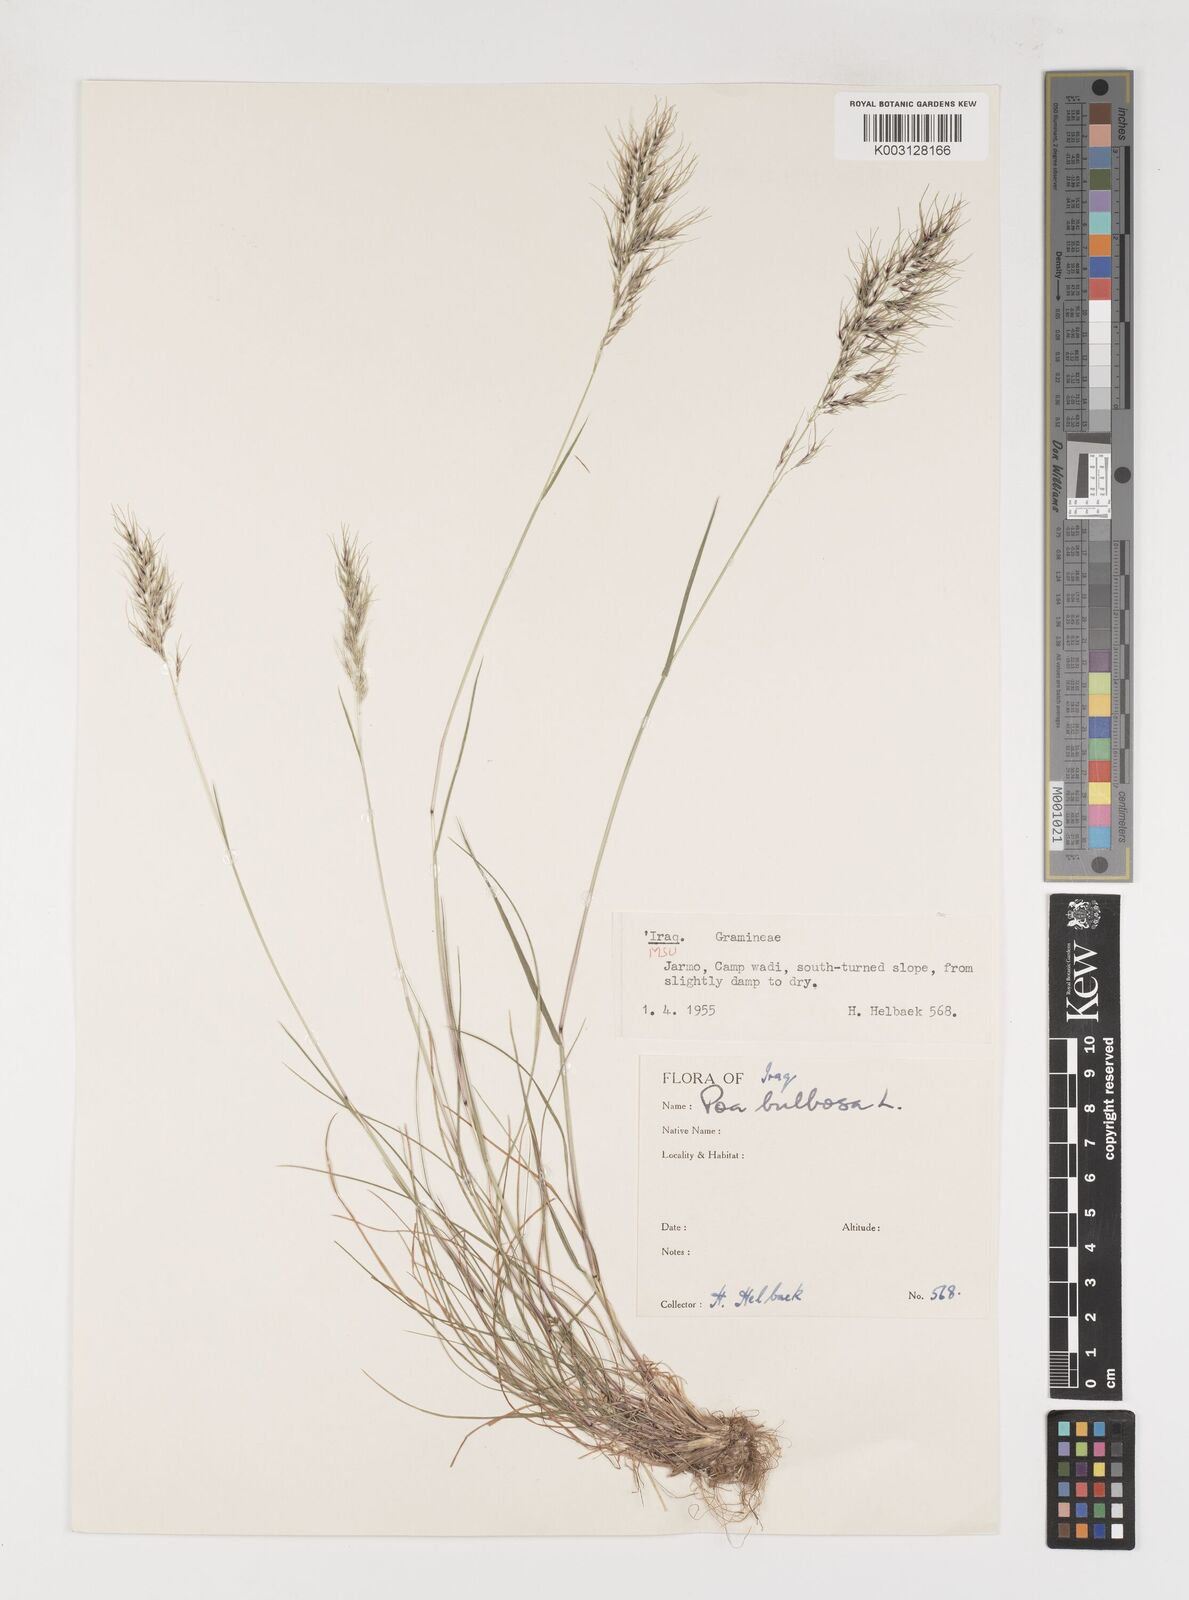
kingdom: Plantae
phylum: Tracheophyta
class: Liliopsida
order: Poales
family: Poaceae
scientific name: Poaceae
